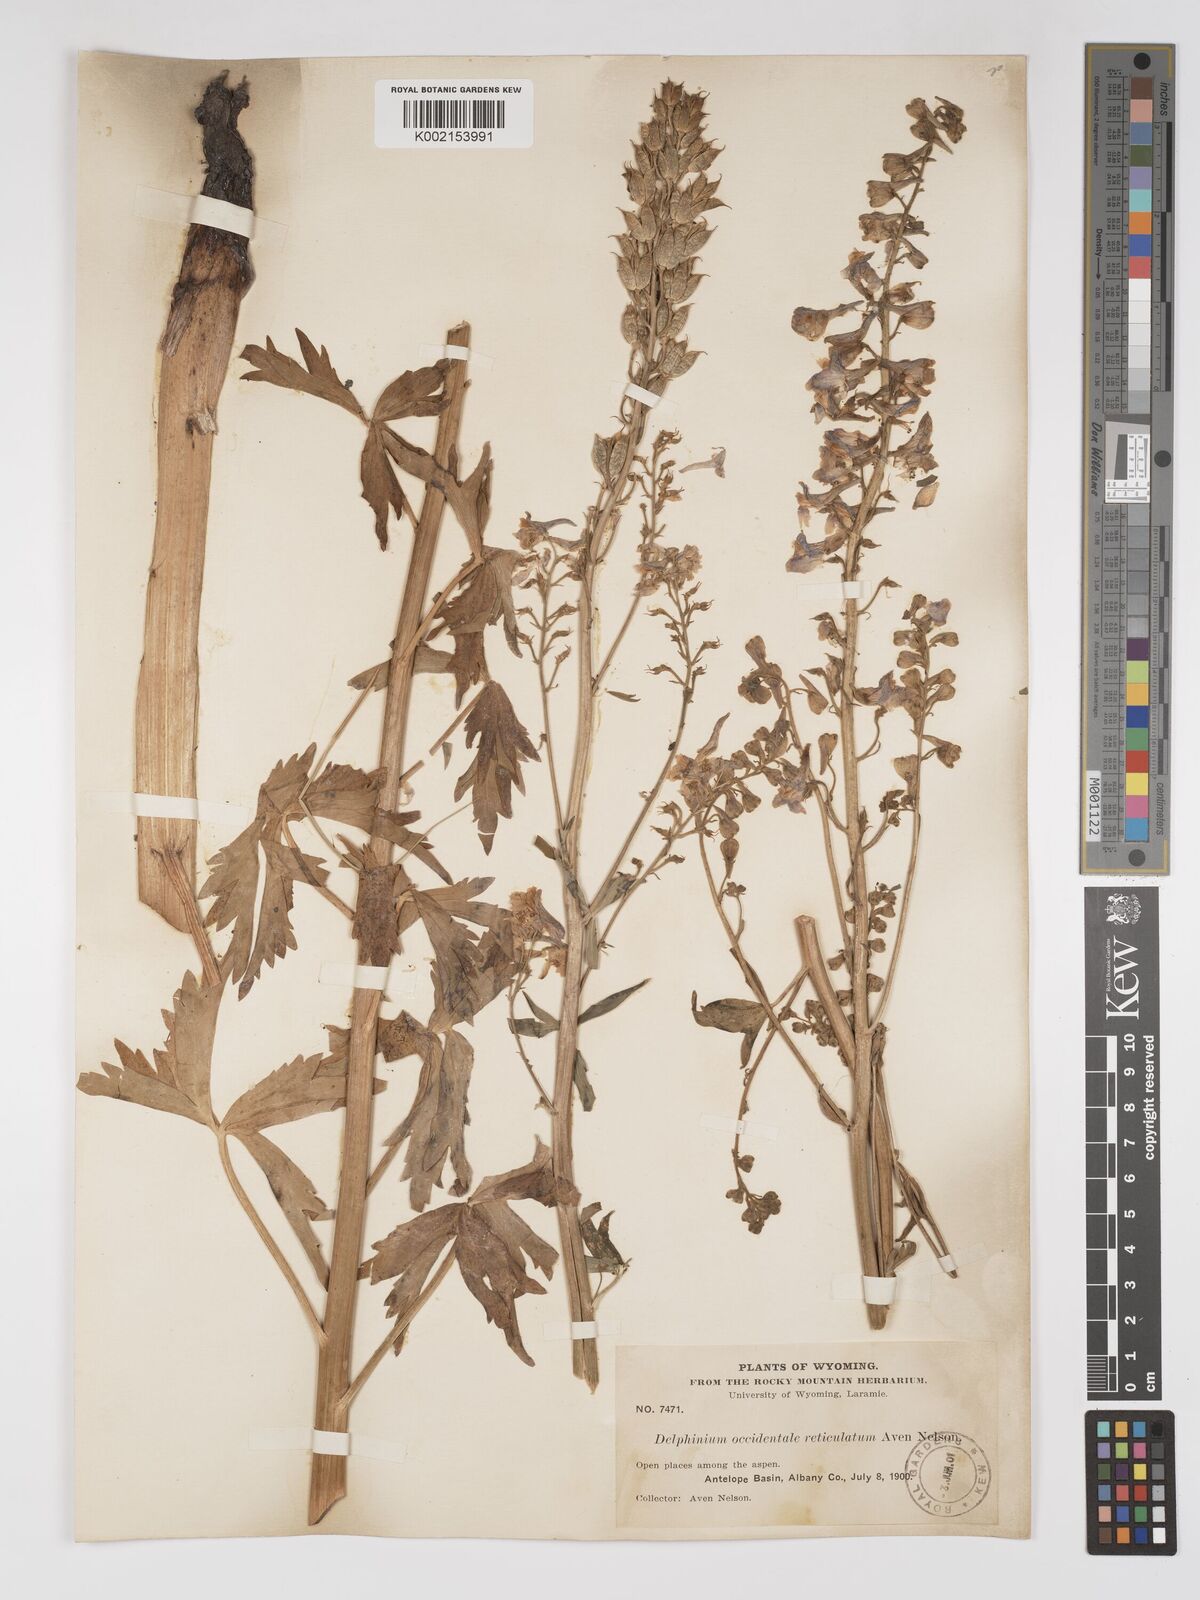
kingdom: Plantae
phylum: Tracheophyta
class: Magnoliopsida
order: Ranunculales
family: Ranunculaceae
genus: Delphinium
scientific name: Delphinium occidentale
